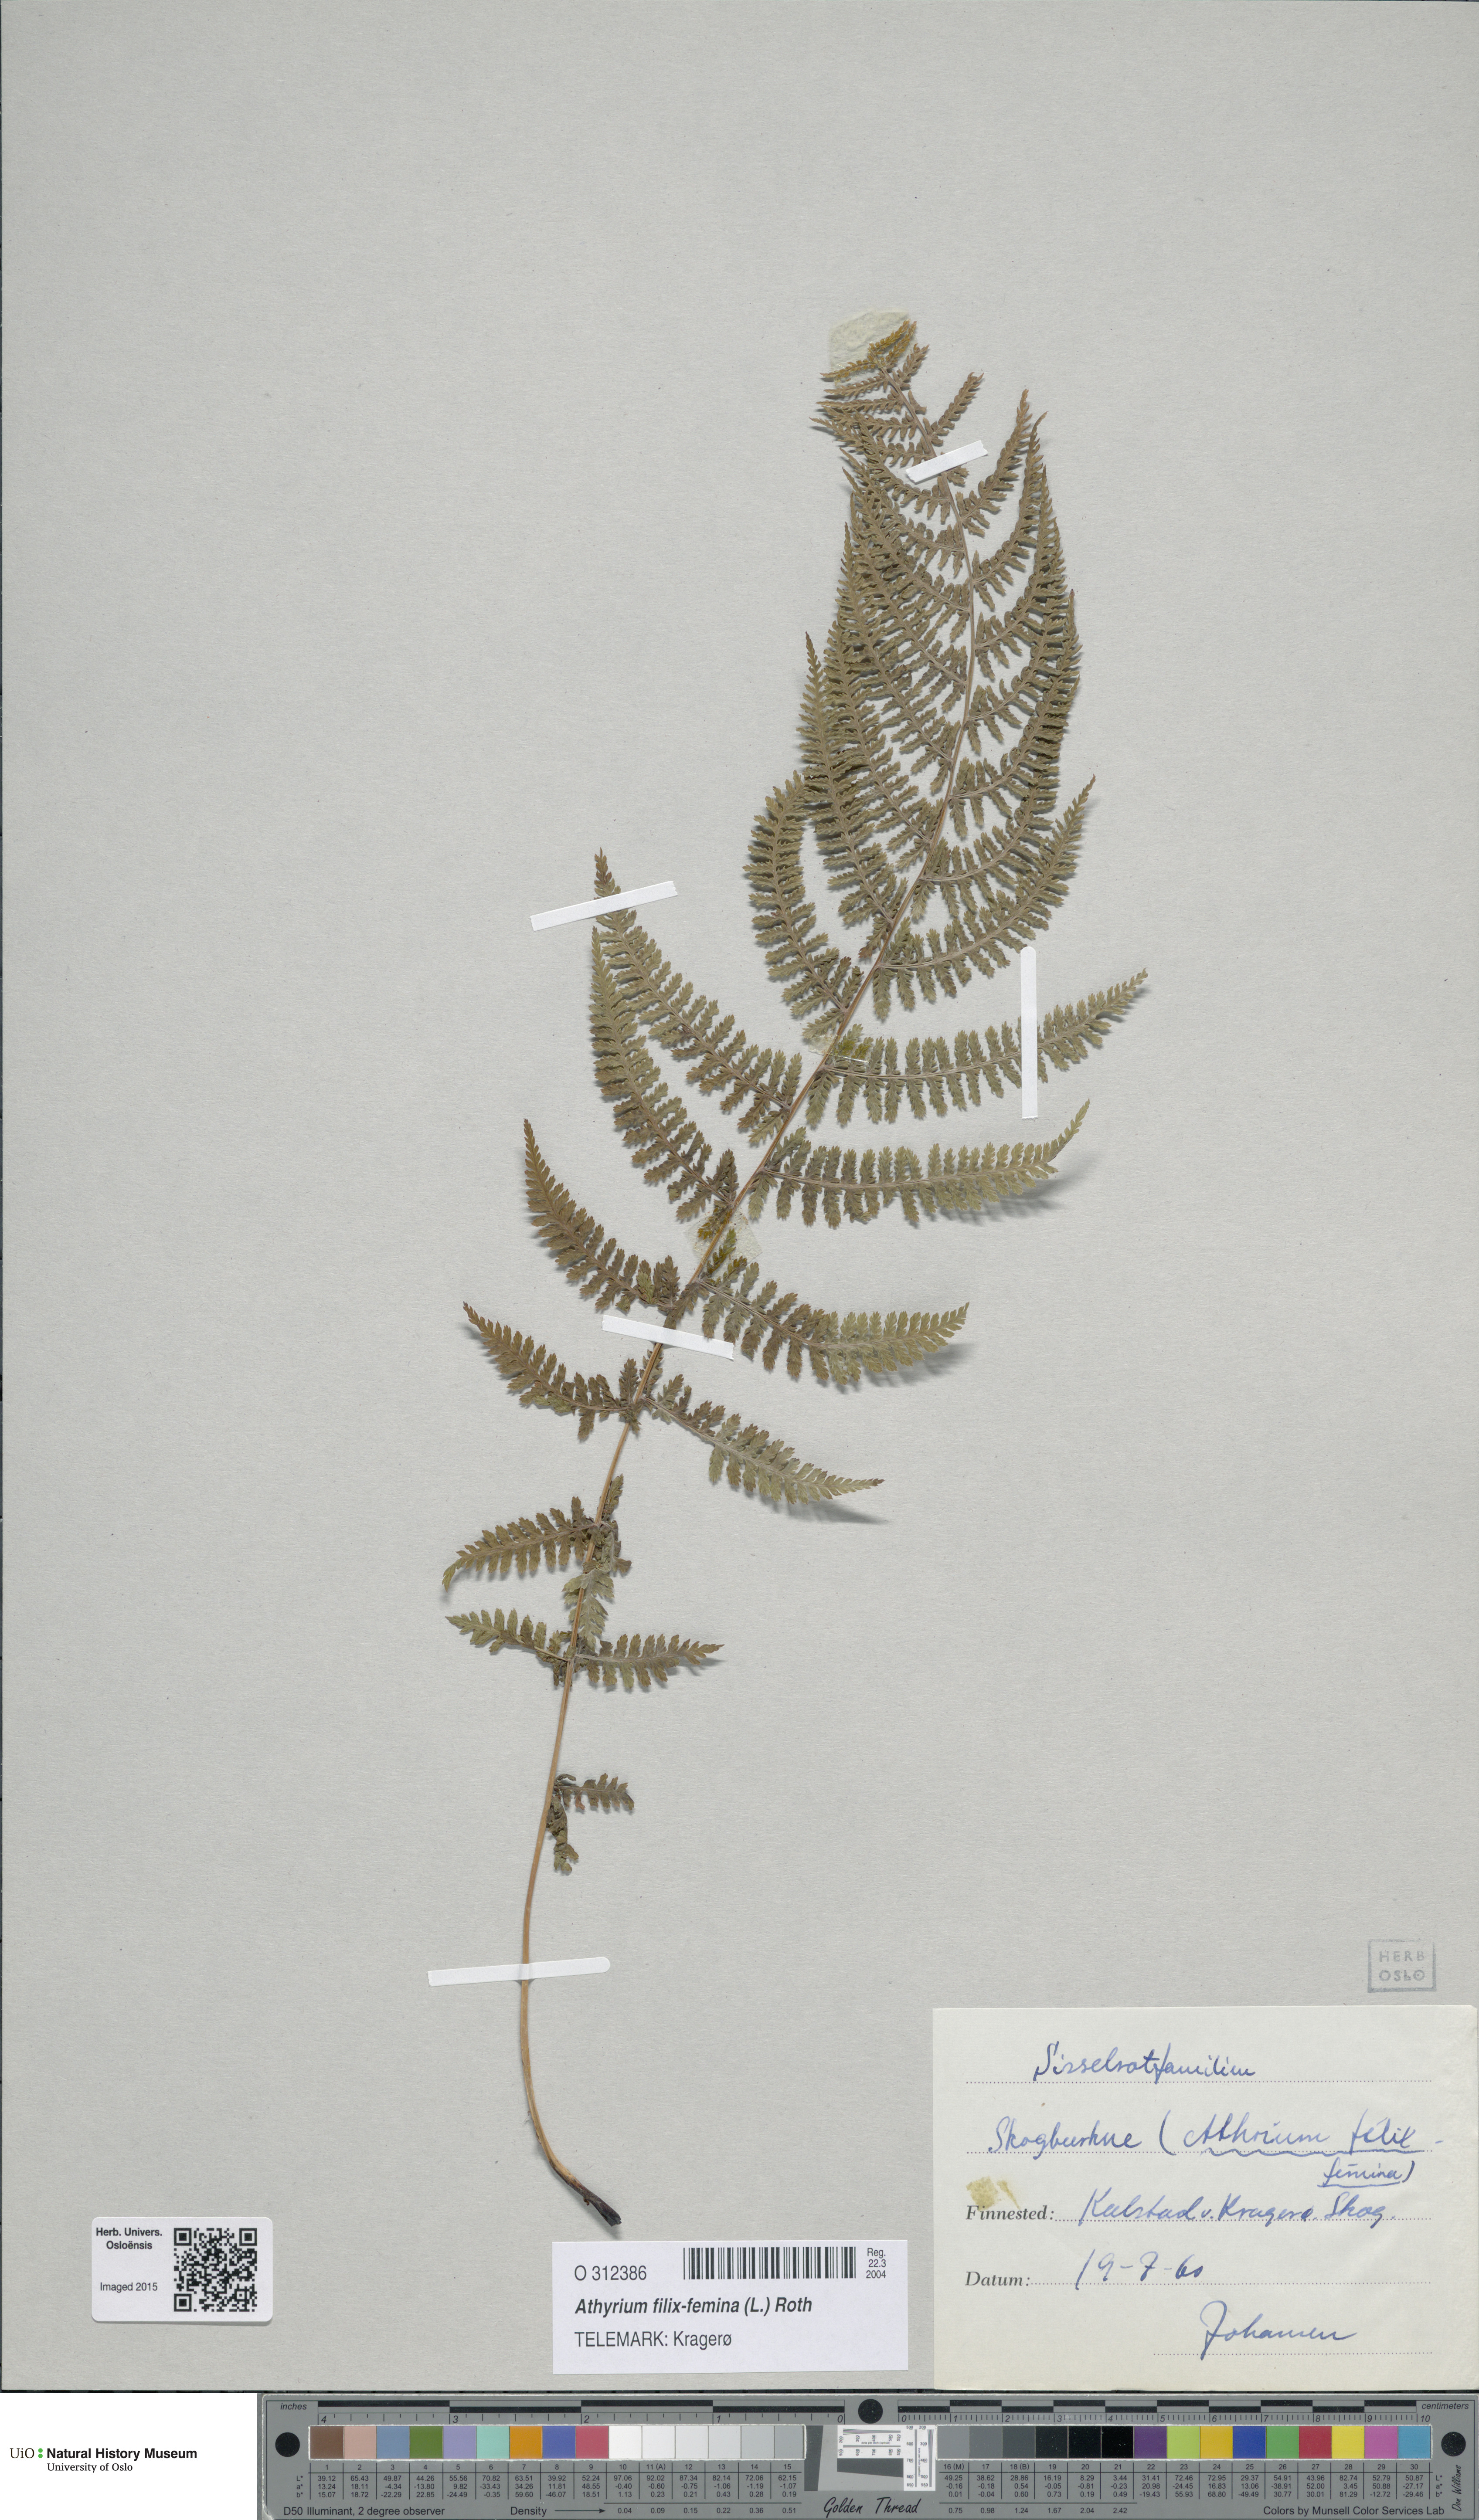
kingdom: Plantae
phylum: Tracheophyta
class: Polypodiopsida
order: Polypodiales
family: Athyriaceae
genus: Athyrium
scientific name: Athyrium filix-femina
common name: Lady fern
